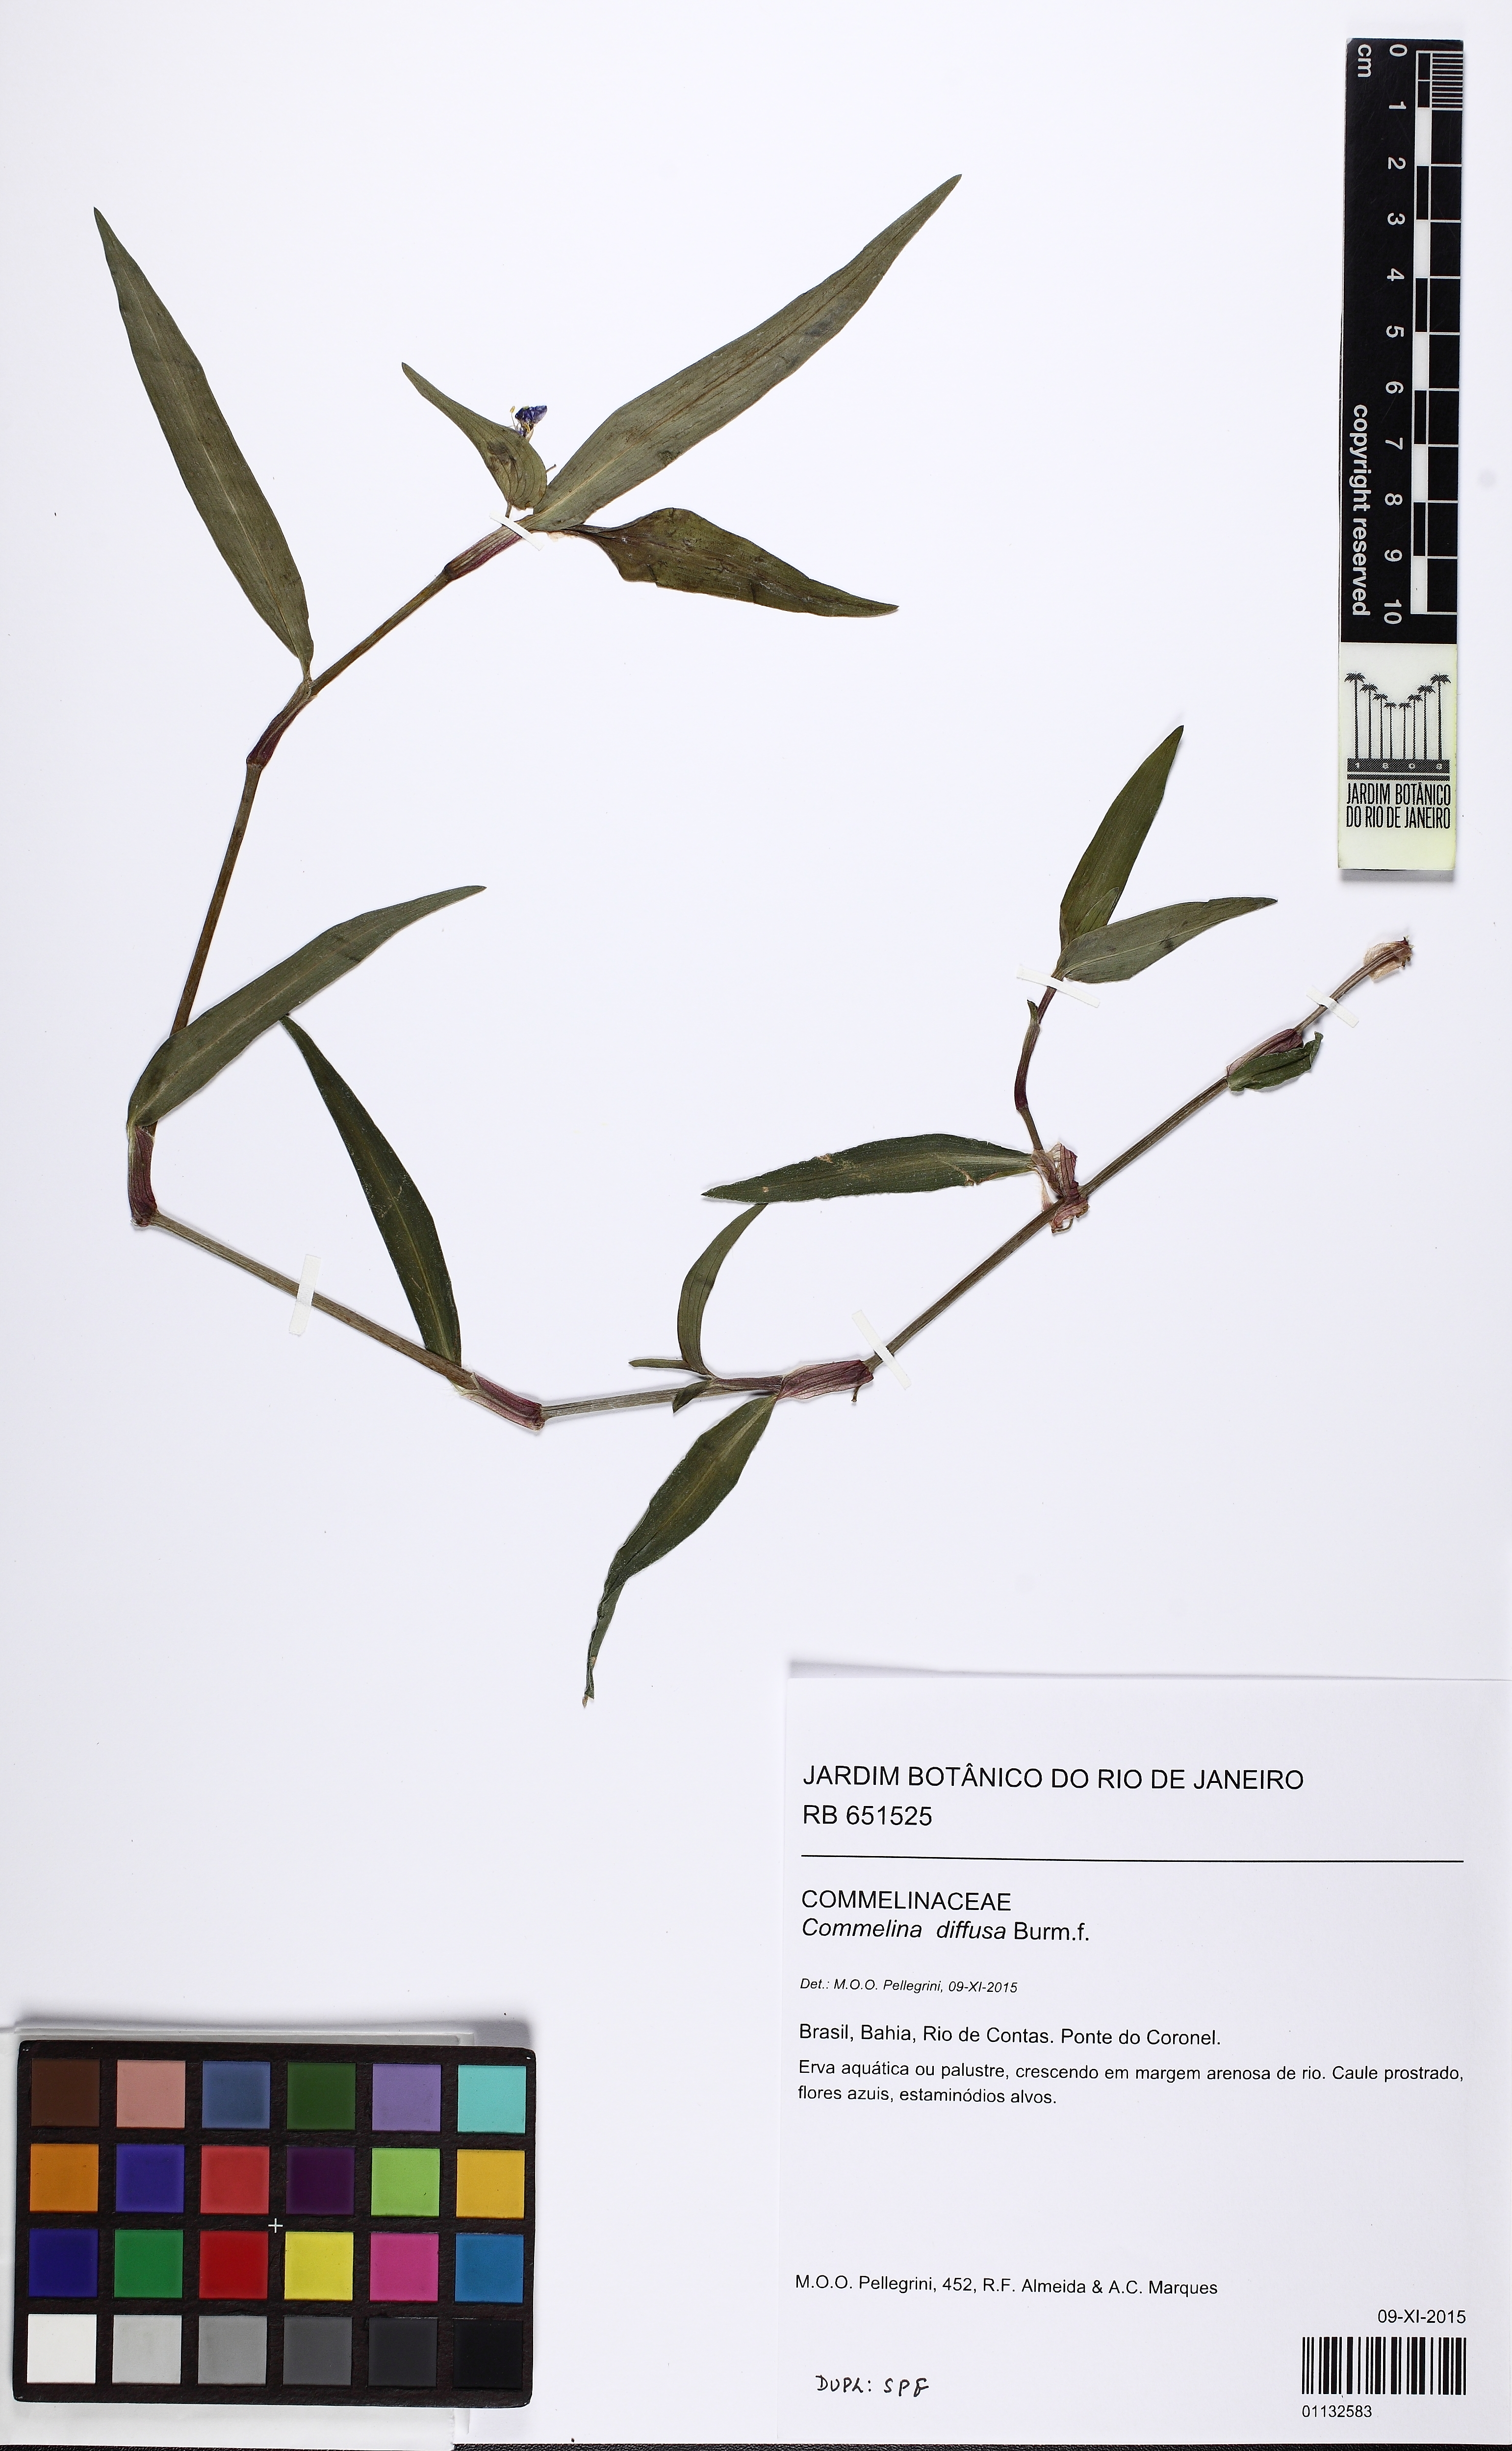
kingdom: Plantae
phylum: Tracheophyta
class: Liliopsida
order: Commelinales
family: Commelinaceae
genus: Commelina
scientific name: Commelina diffusa
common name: Climbing dayflower
